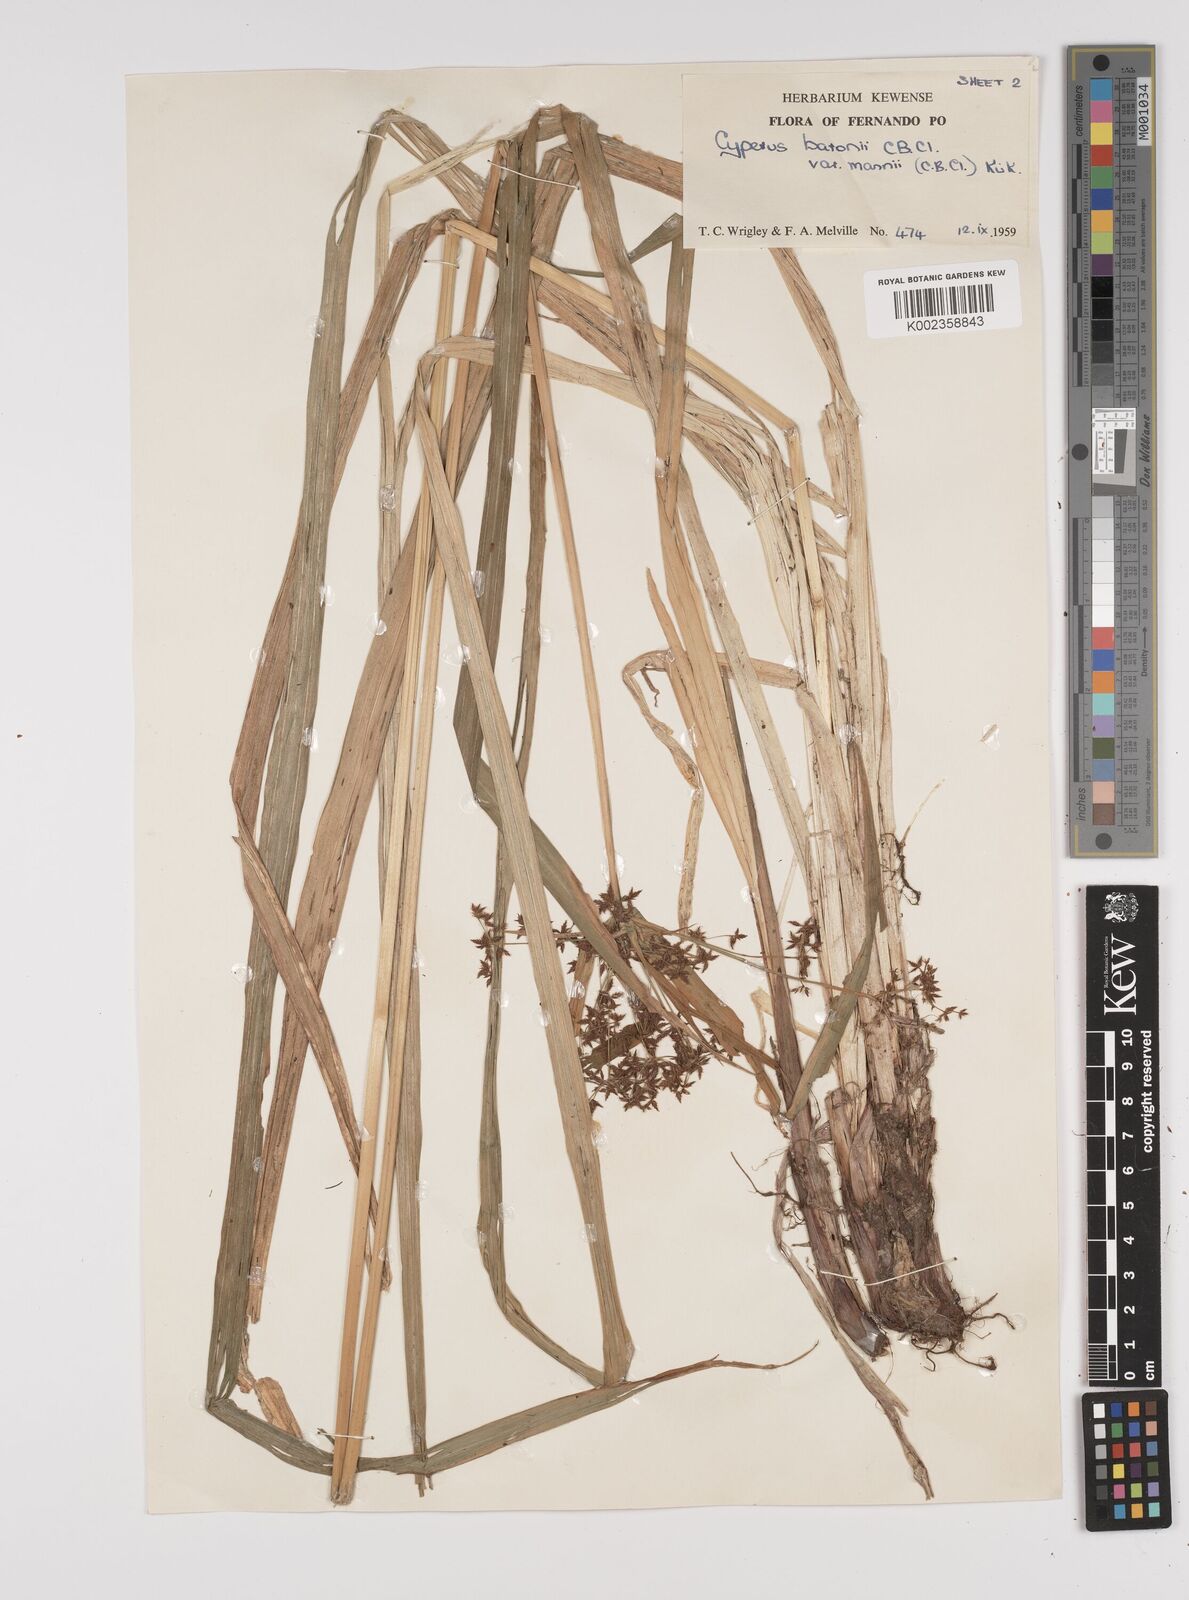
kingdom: Plantae
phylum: Tracheophyta
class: Liliopsida
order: Poales
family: Cyperaceae
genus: Cyperus
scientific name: Cyperus baronii
